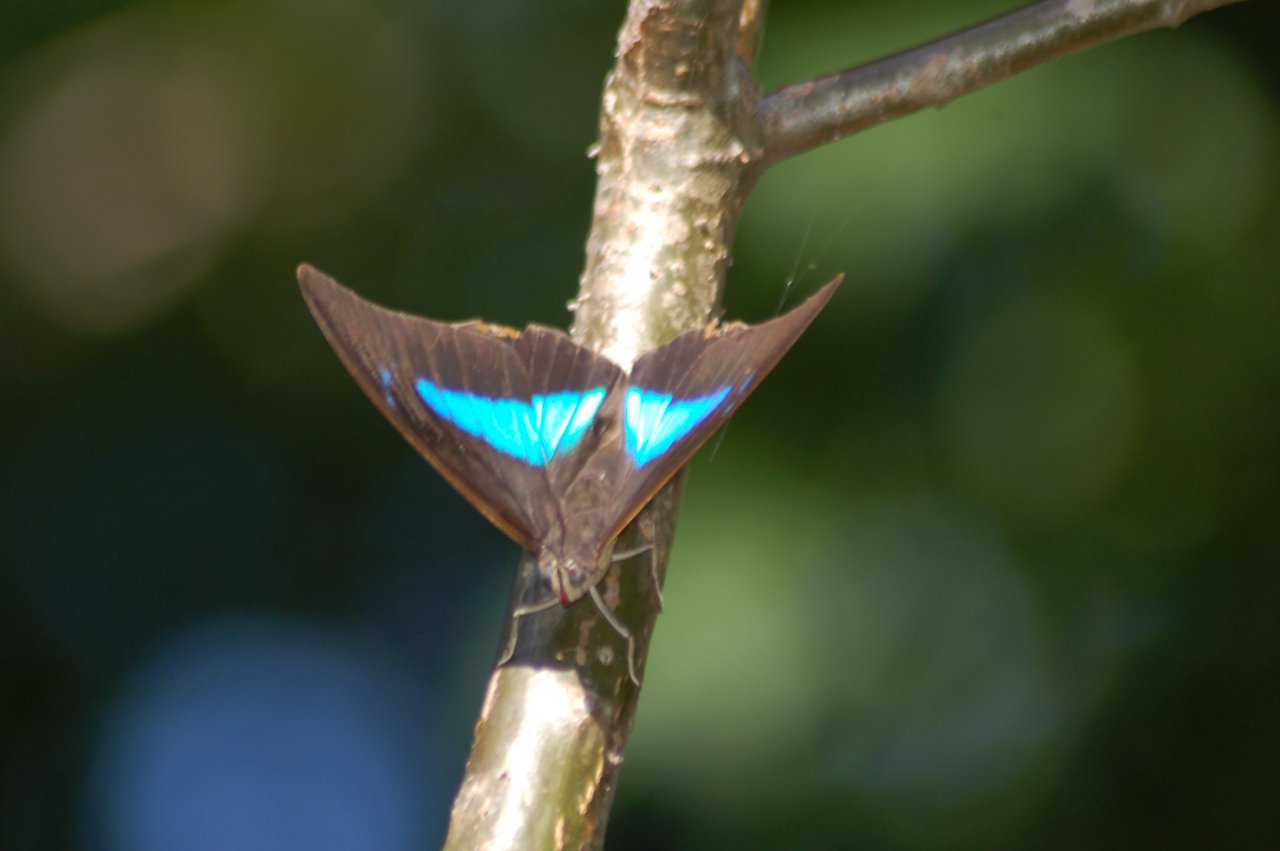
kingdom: Animalia
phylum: Arthropoda
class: Insecta
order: Lepidoptera
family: Nymphalidae
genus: Prepona
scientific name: Prepona demophon
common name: One-spotted Prepona
